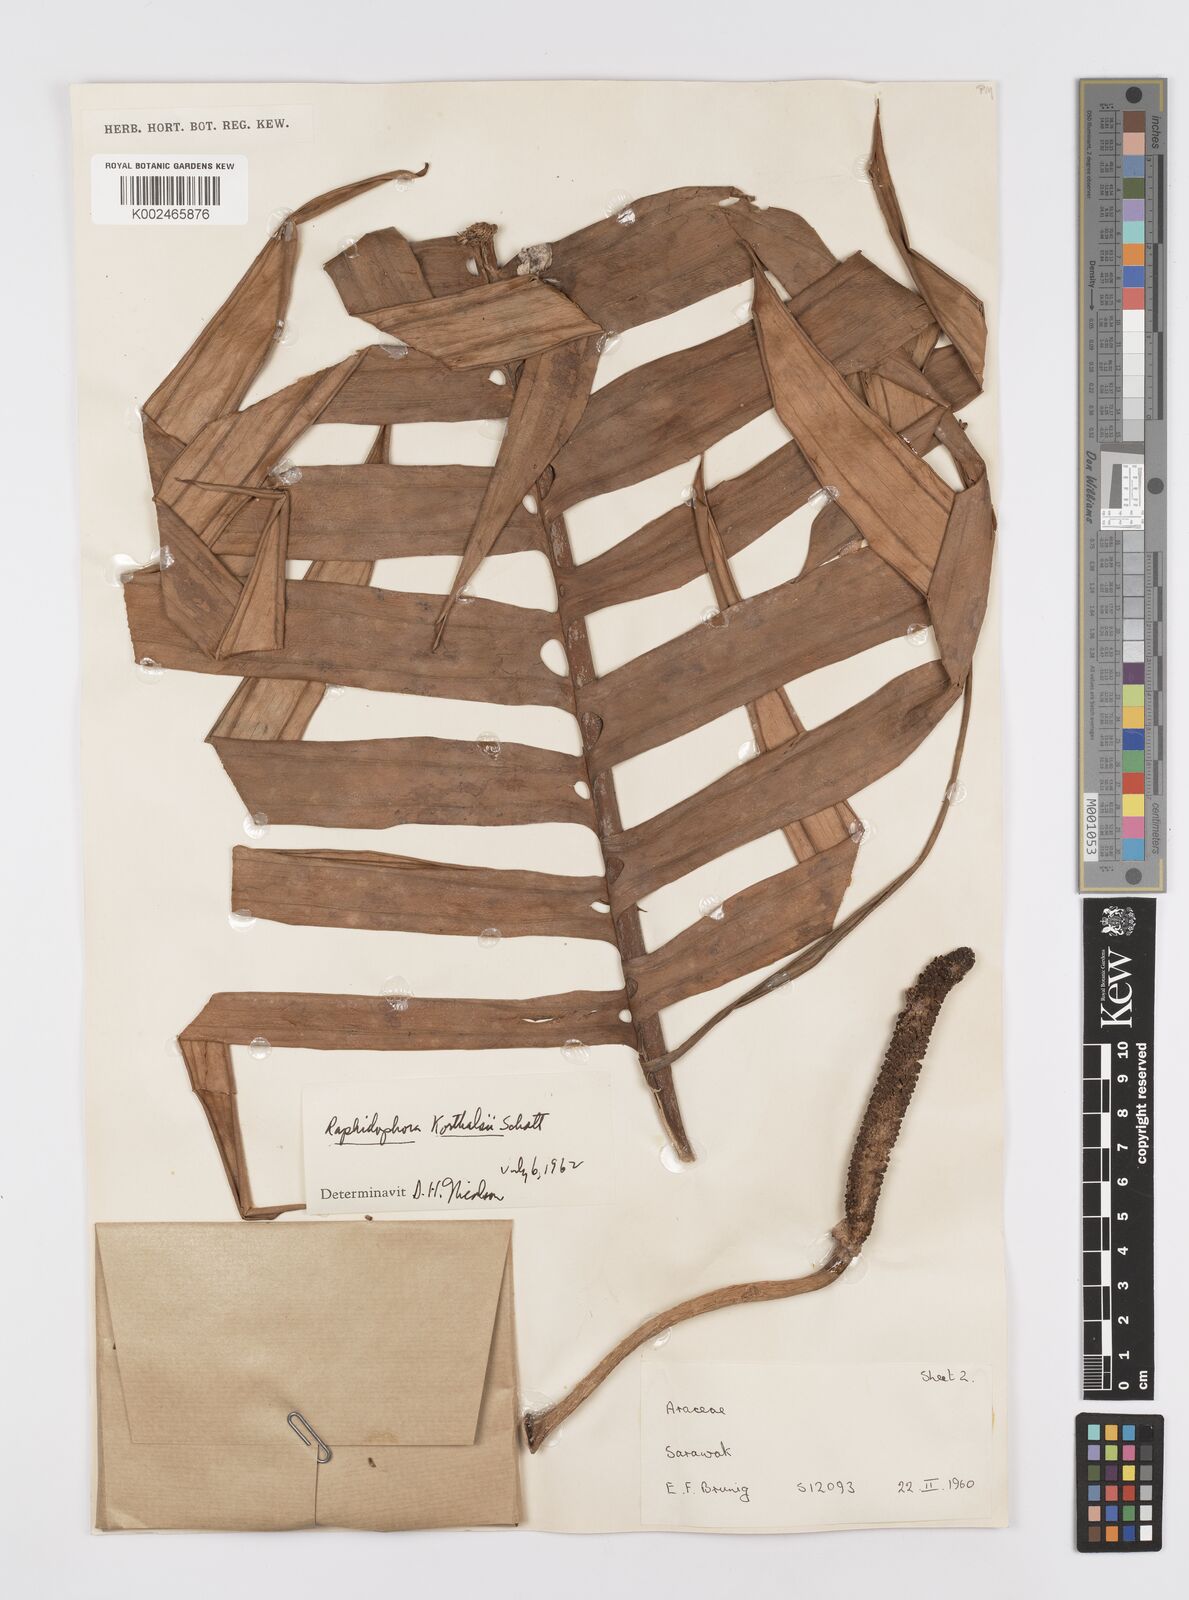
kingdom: Plantae
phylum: Tracheophyta
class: Liliopsida
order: Alismatales
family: Araceae
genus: Rhaphidophora
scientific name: Rhaphidophora korthalsii
